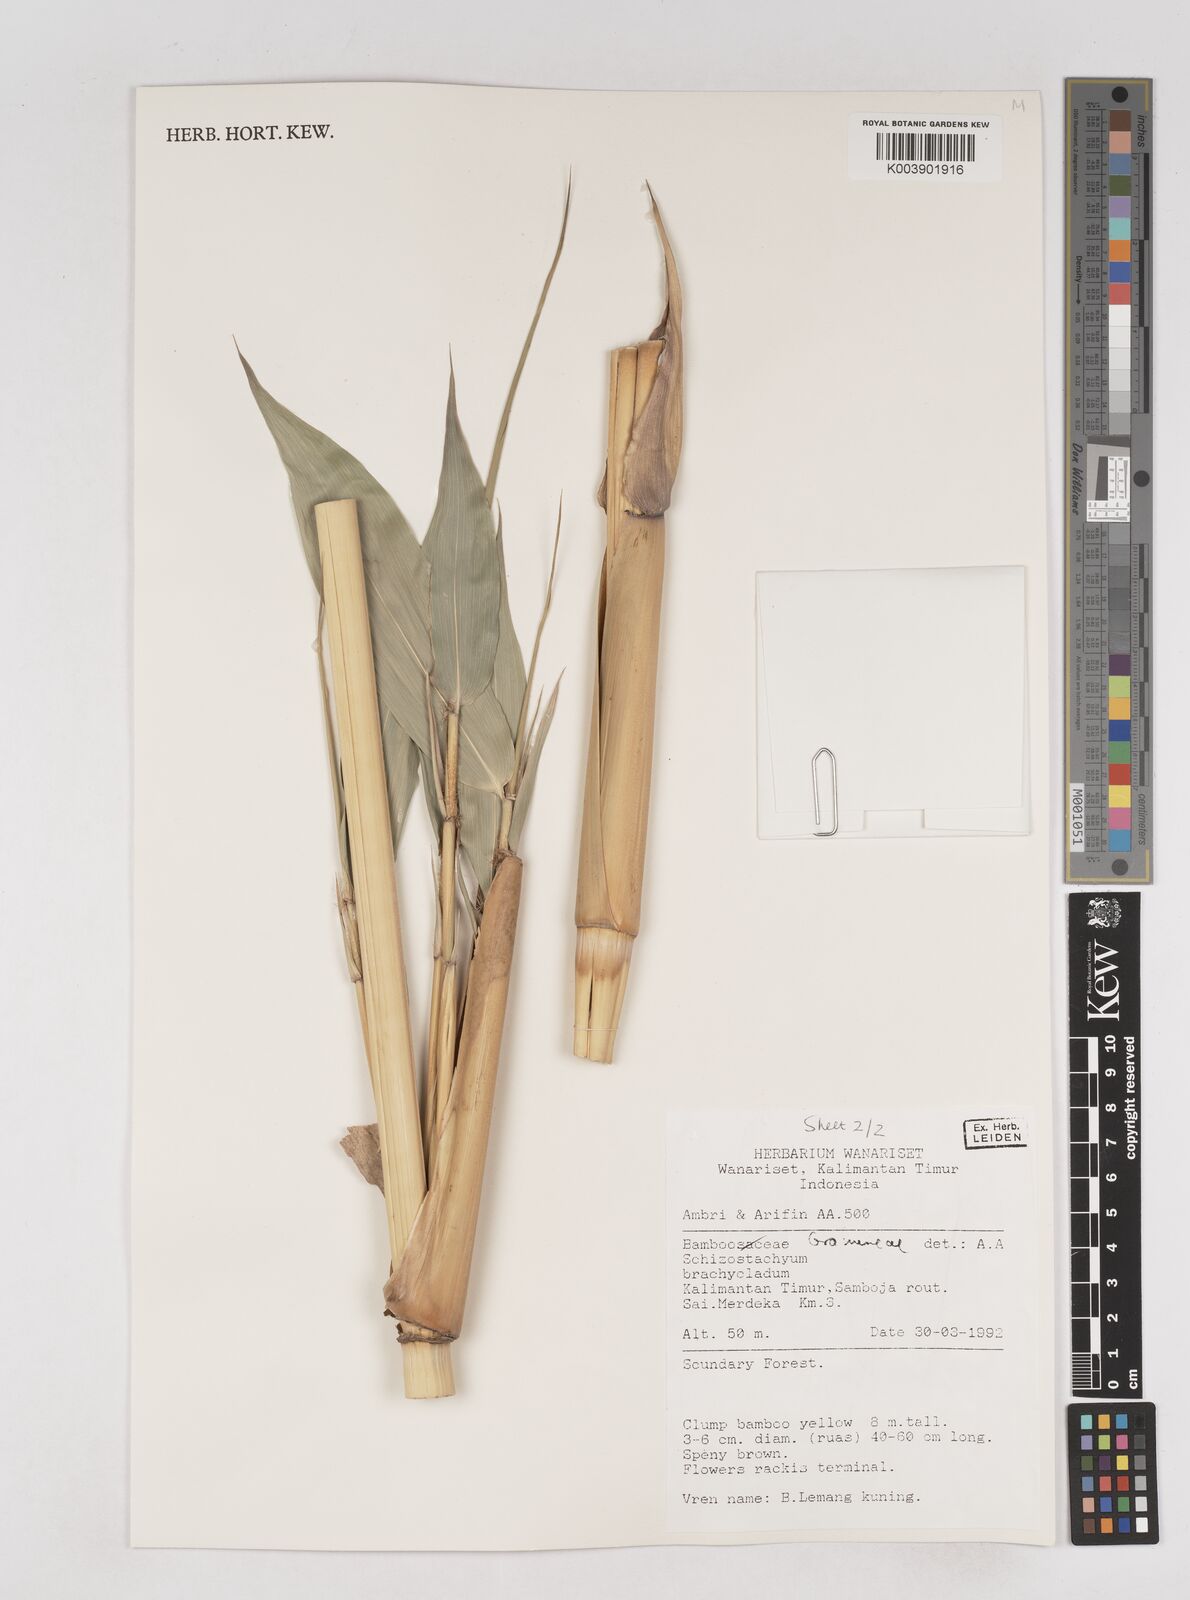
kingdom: Plantae
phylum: Tracheophyta
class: Liliopsida
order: Poales
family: Poaceae
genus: Schizostachyum
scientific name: Schizostachyum brachycladum
